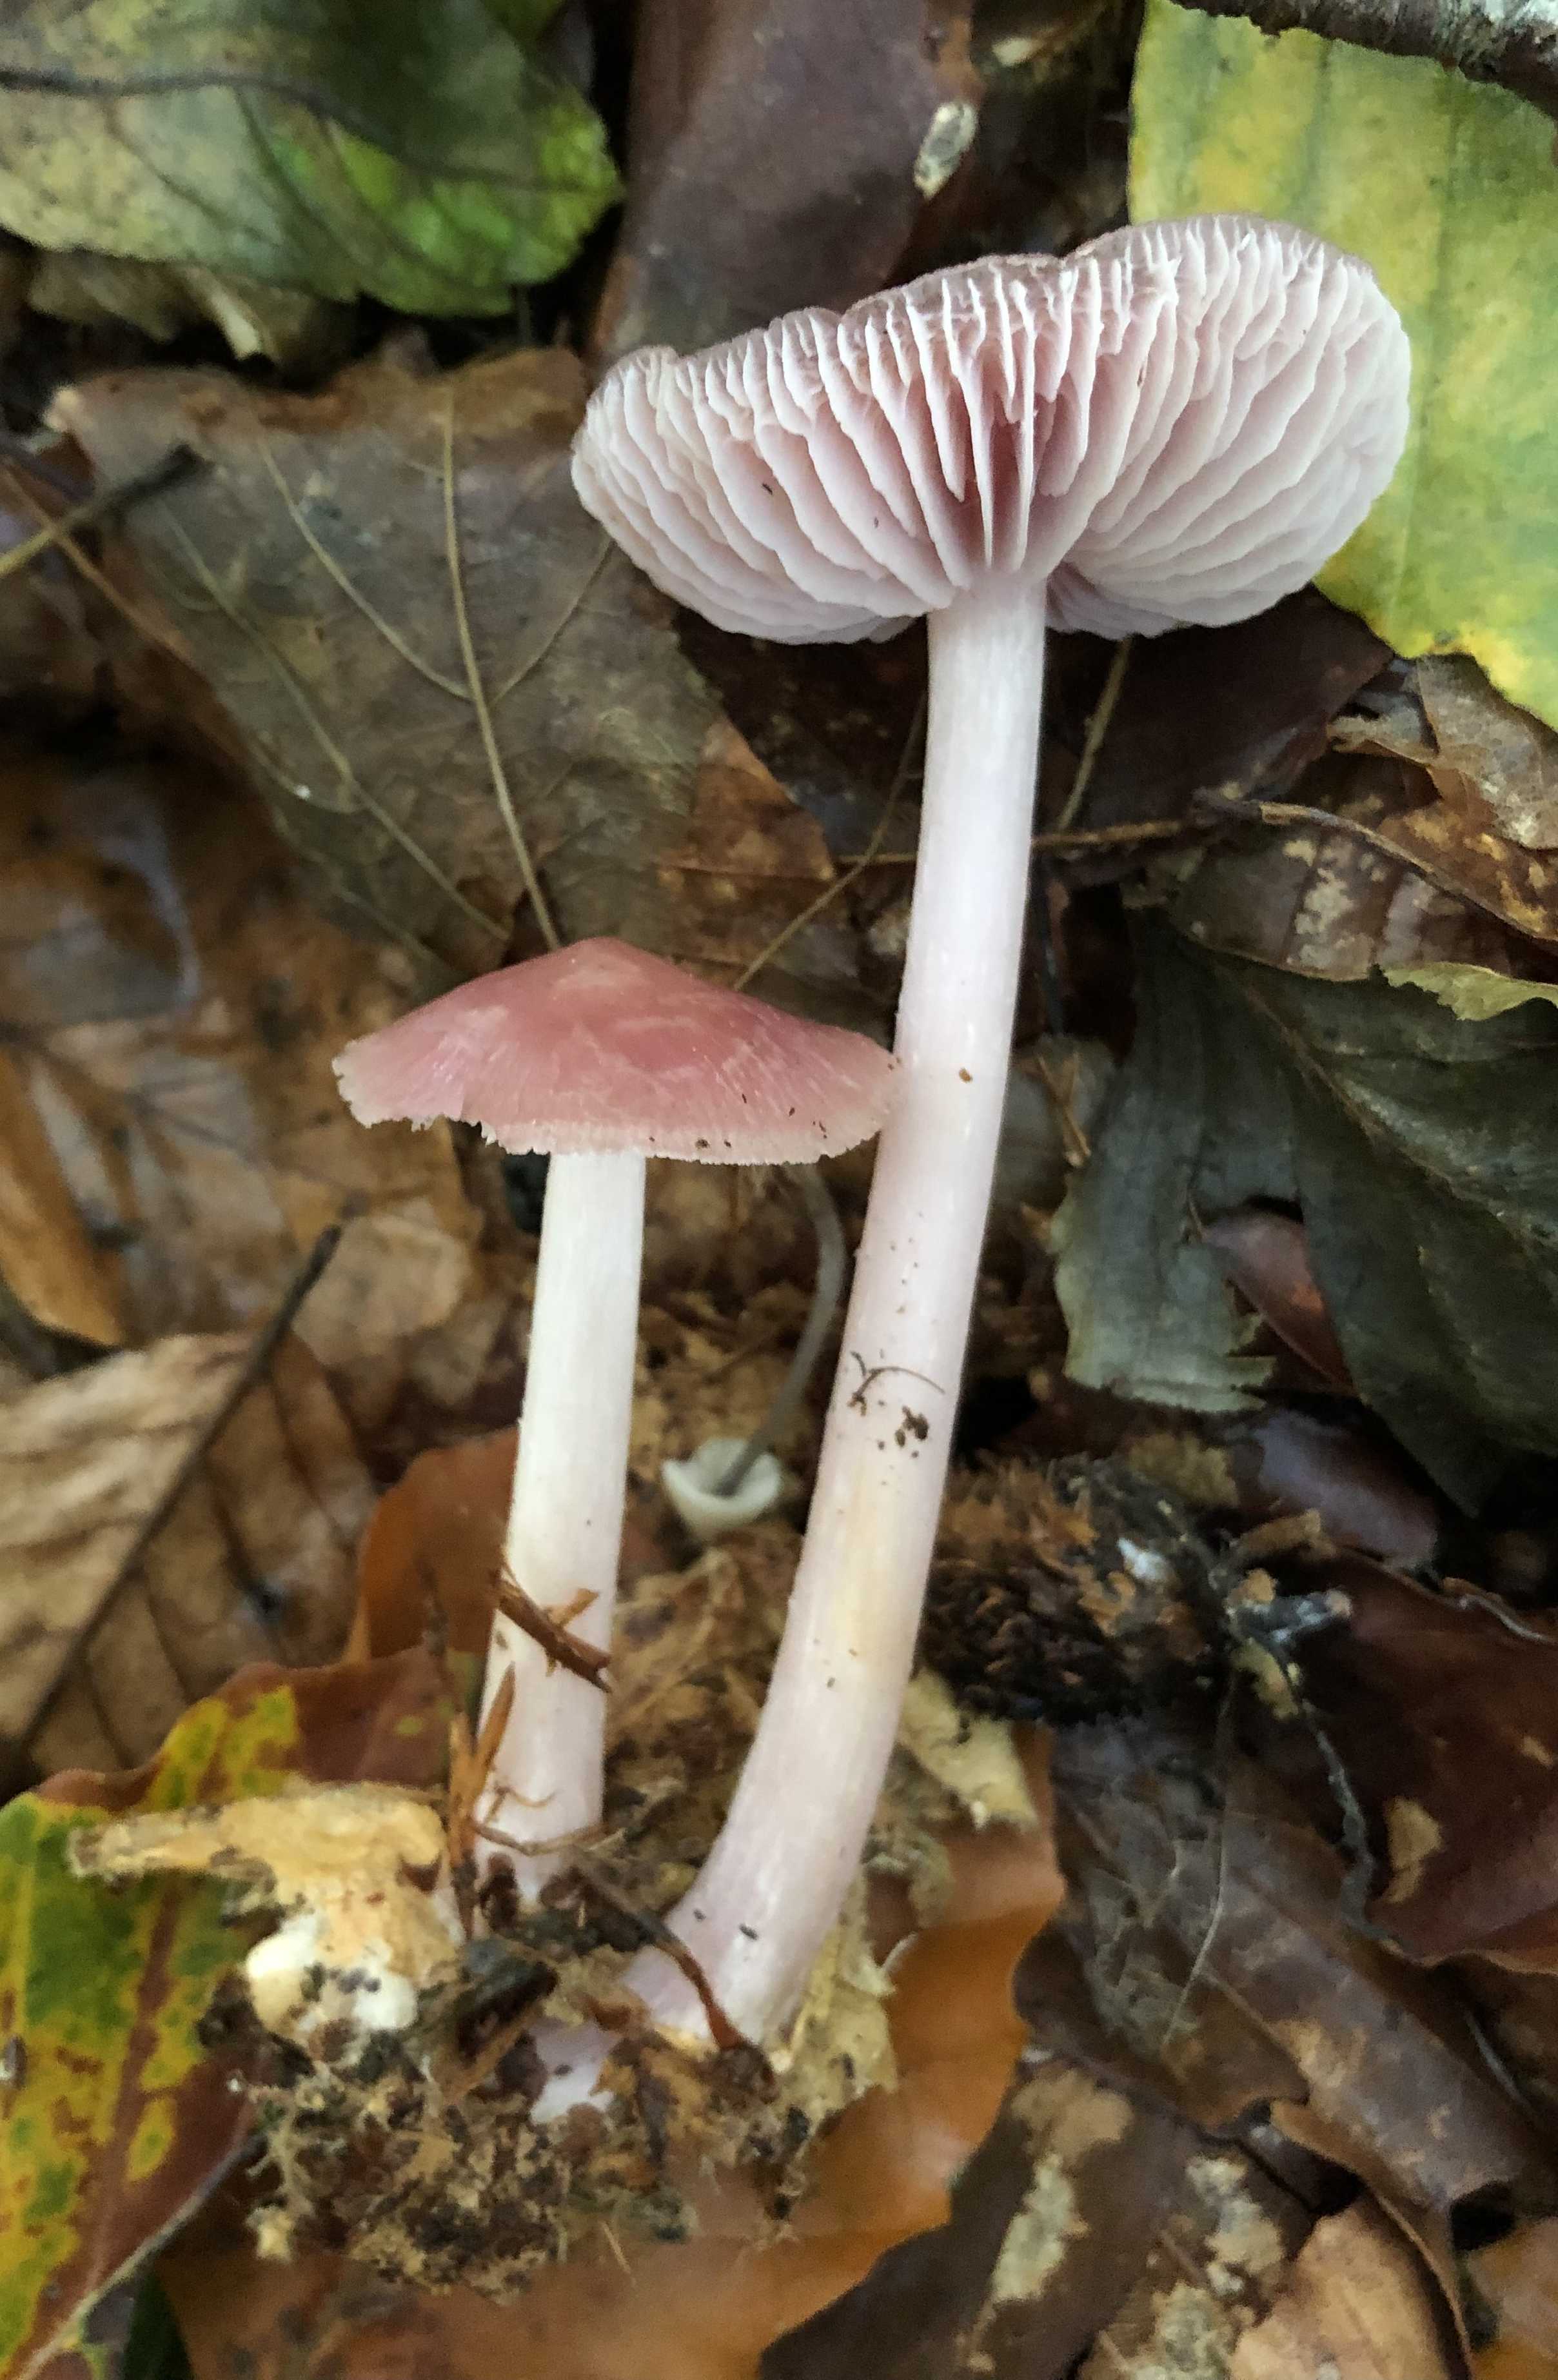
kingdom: Fungi
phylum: Basidiomycota
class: Agaricomycetes
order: Agaricales
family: Mycenaceae
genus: Mycena
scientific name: Mycena rosea
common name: rosa huesvamp
